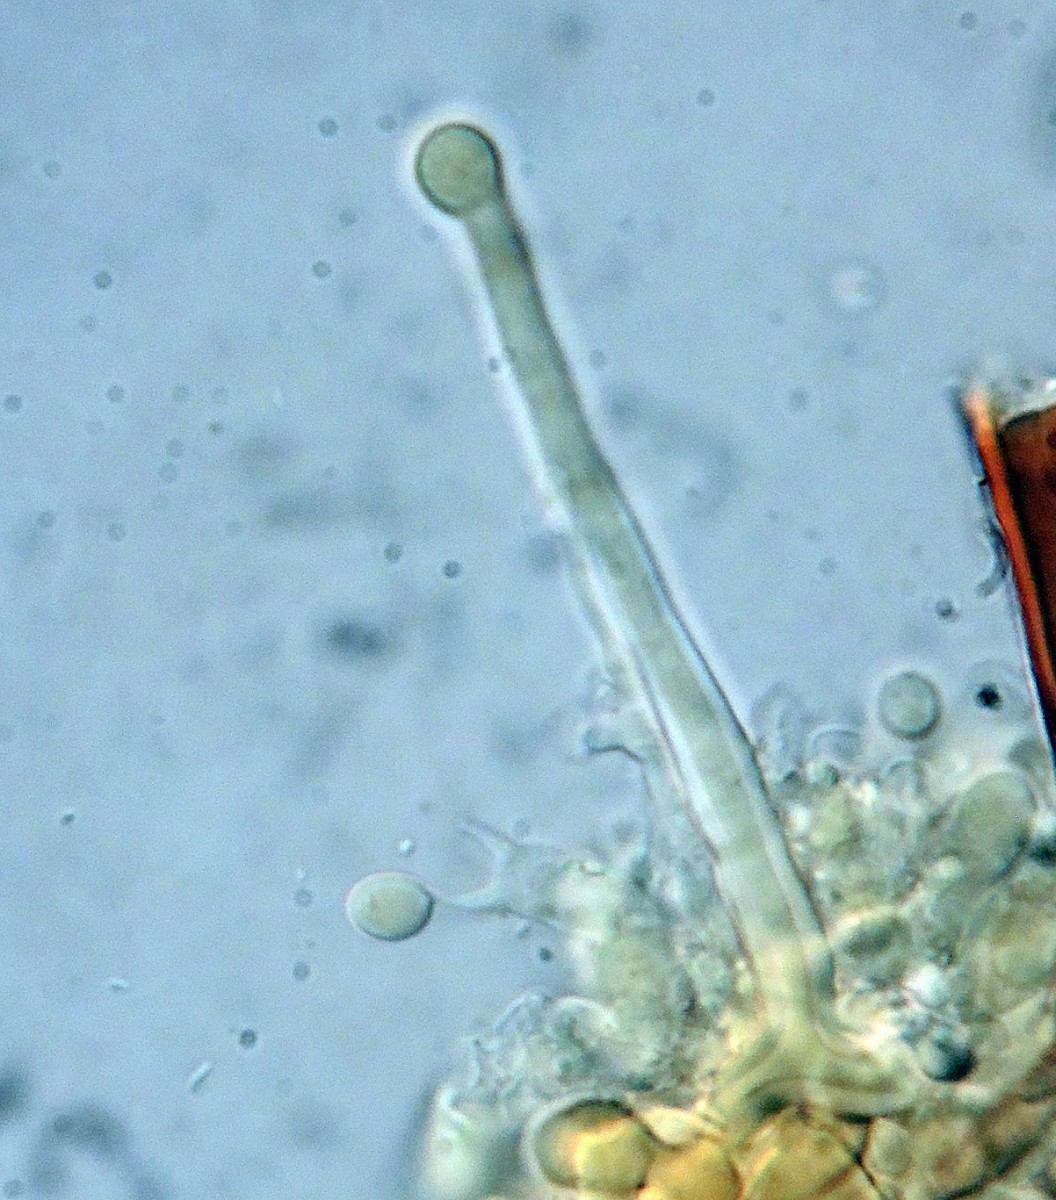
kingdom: Fungi
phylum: Basidiomycota
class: Agaricomycetes
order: Hymenochaetales
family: Hymenochaetaceae
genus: Tubulicrinis
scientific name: Tubulicrinis thermometrus
